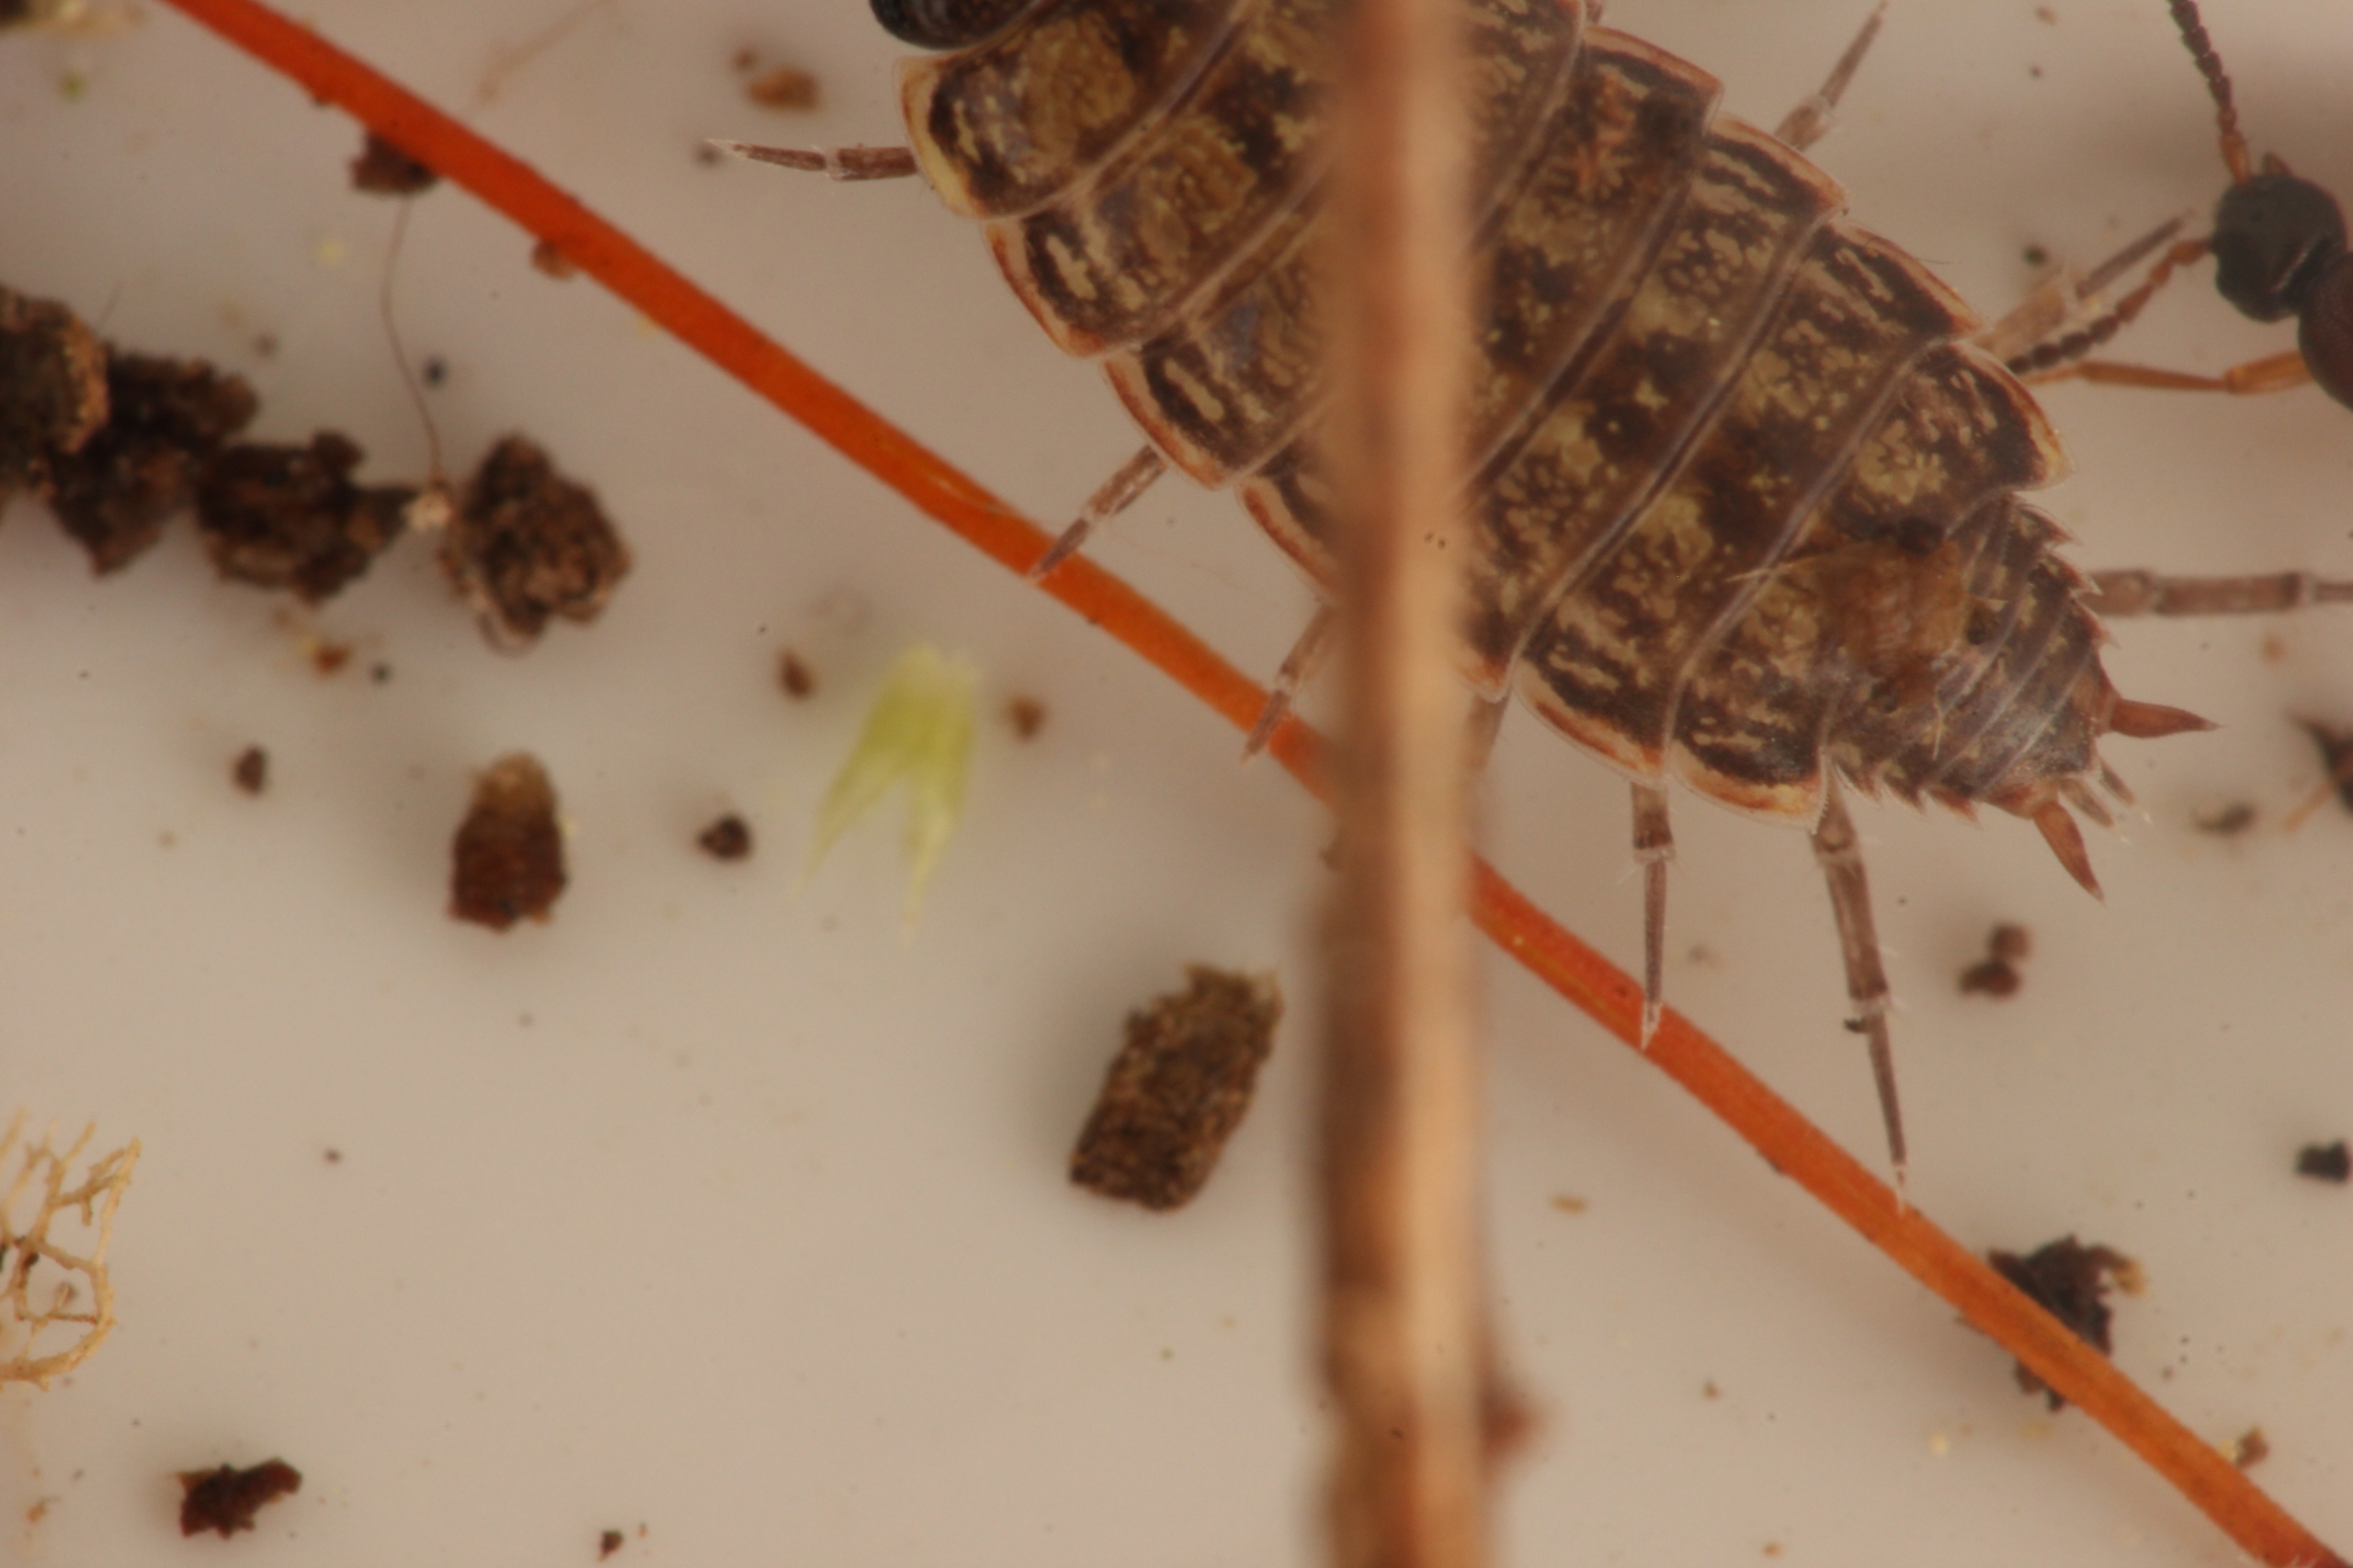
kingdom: Animalia
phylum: Arthropoda
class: Malacostraca
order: Isopoda
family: Philosciidae
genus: Philoscia
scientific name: Philoscia muscorum
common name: Langbenet bænkebider
